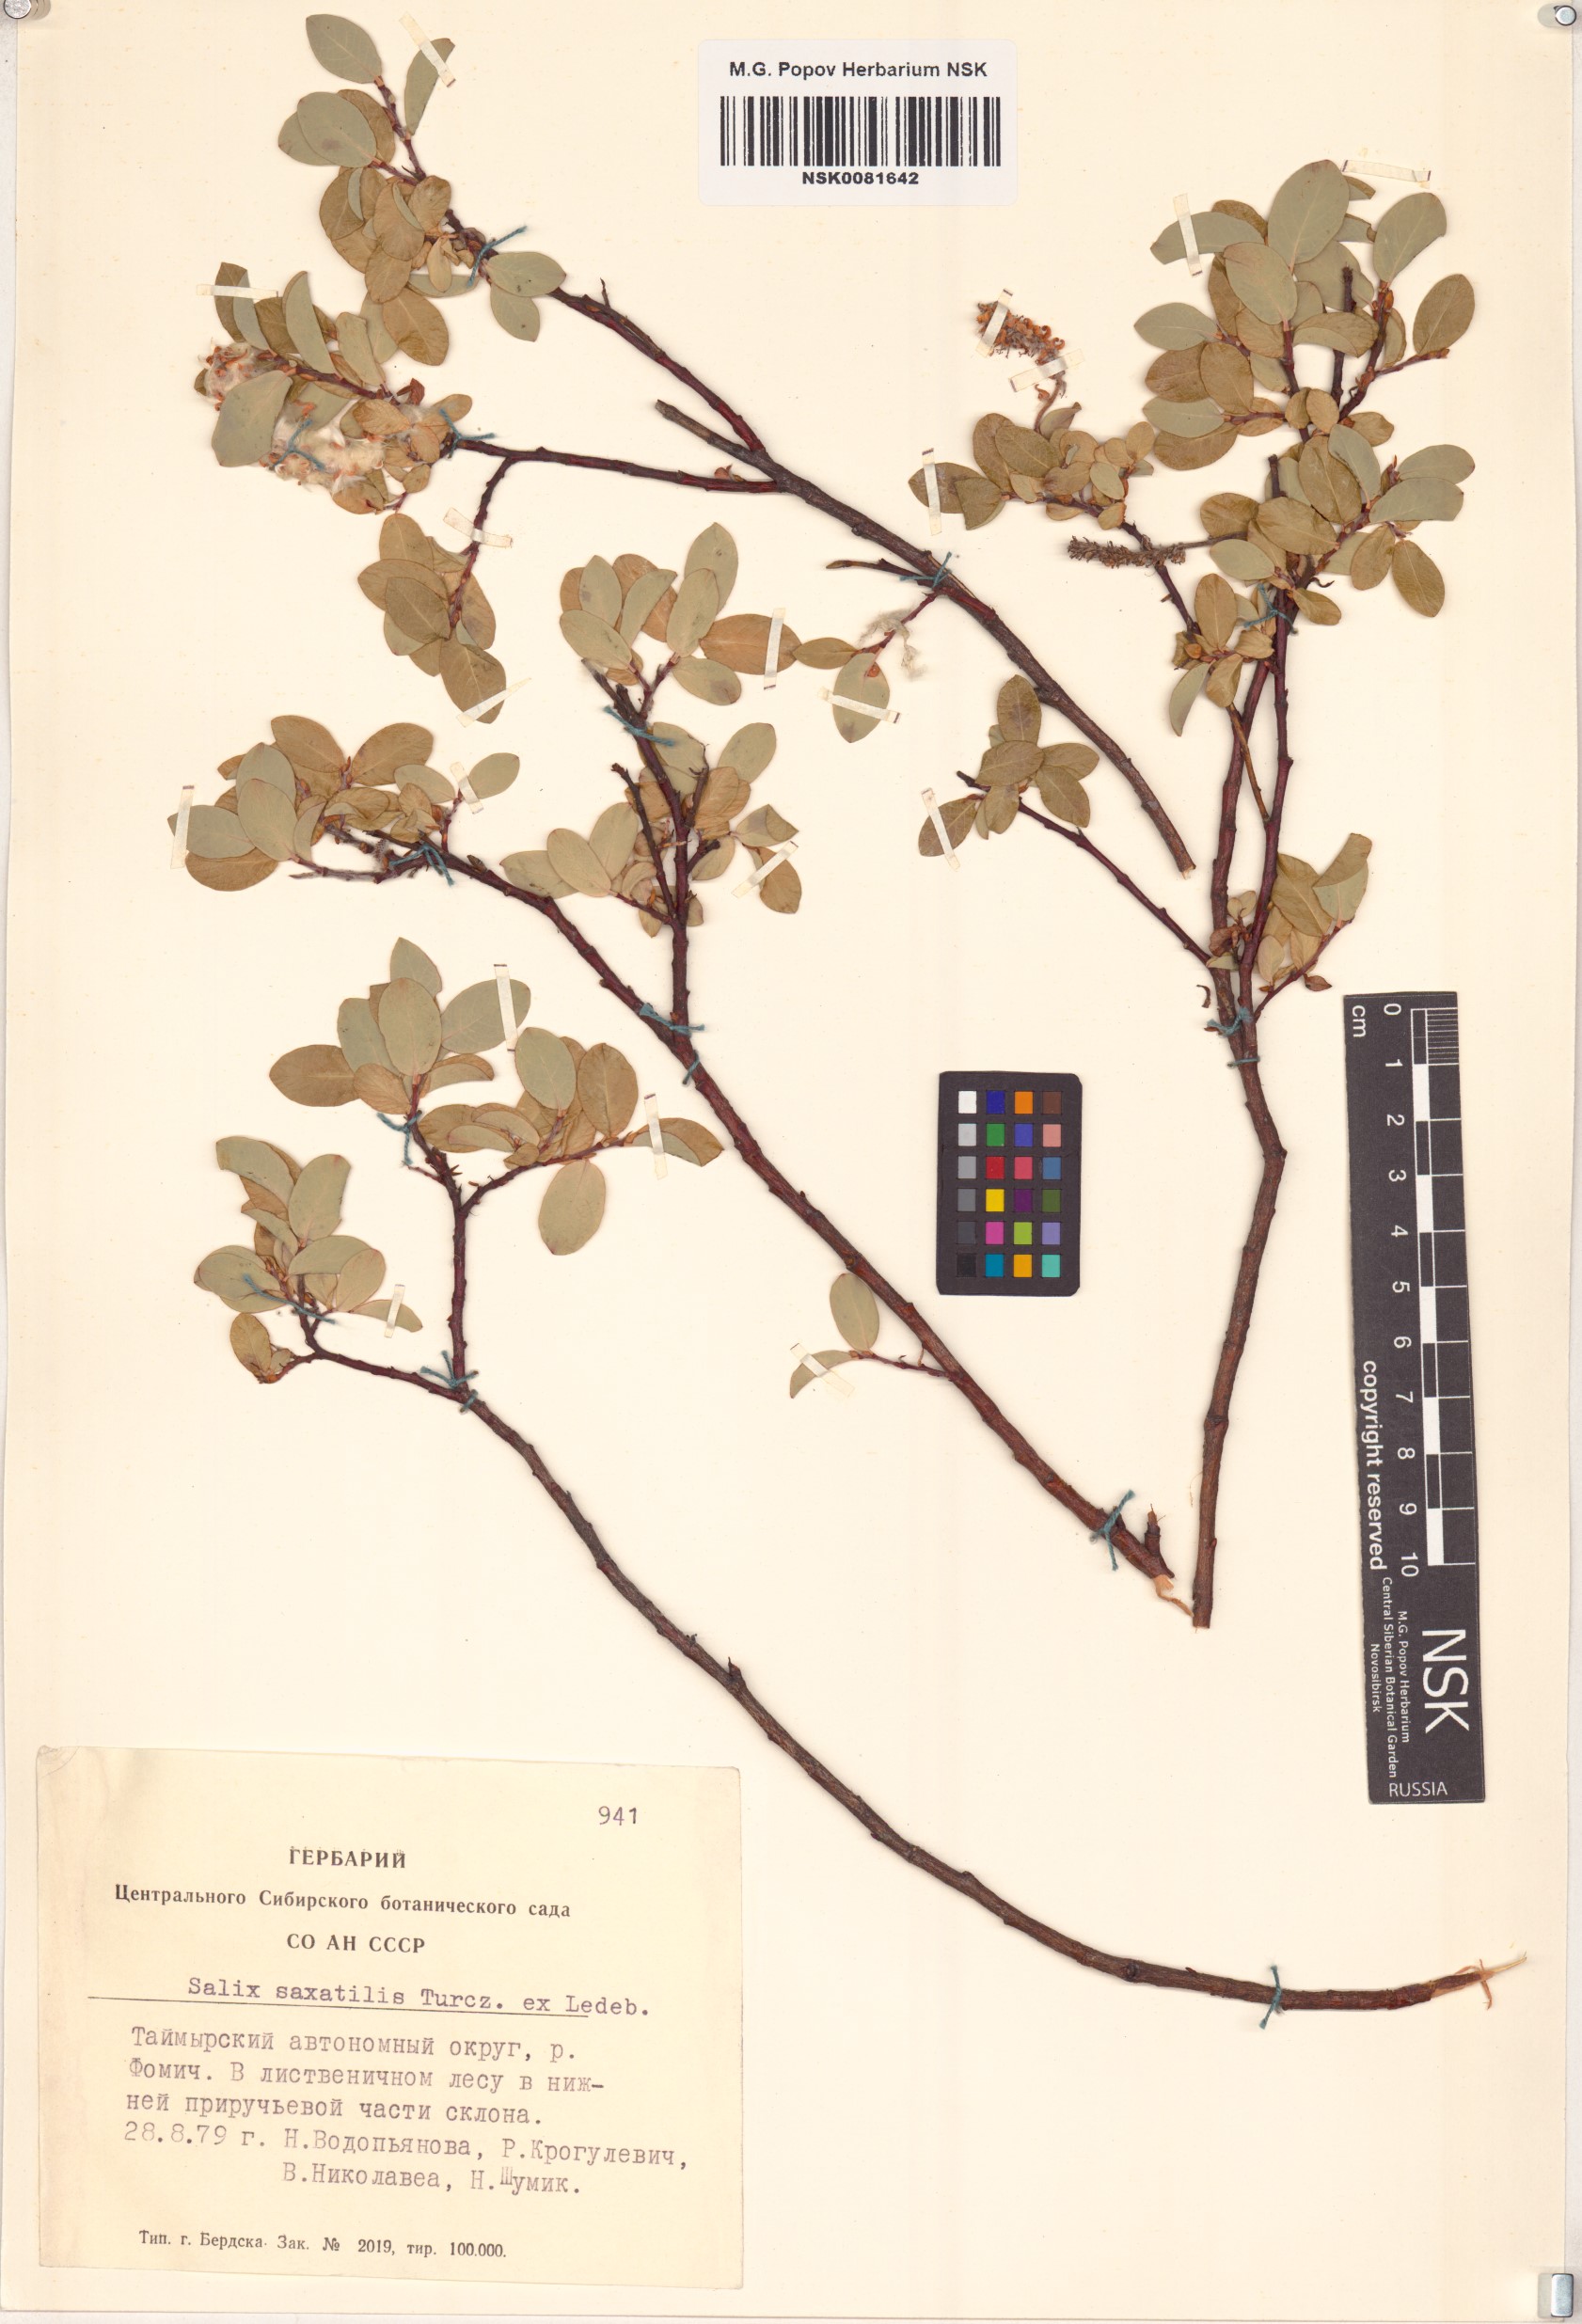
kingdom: Plantae
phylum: Tracheophyta
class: Magnoliopsida
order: Malpighiales
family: Salicaceae
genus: Salix
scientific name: Salix saxatilis
